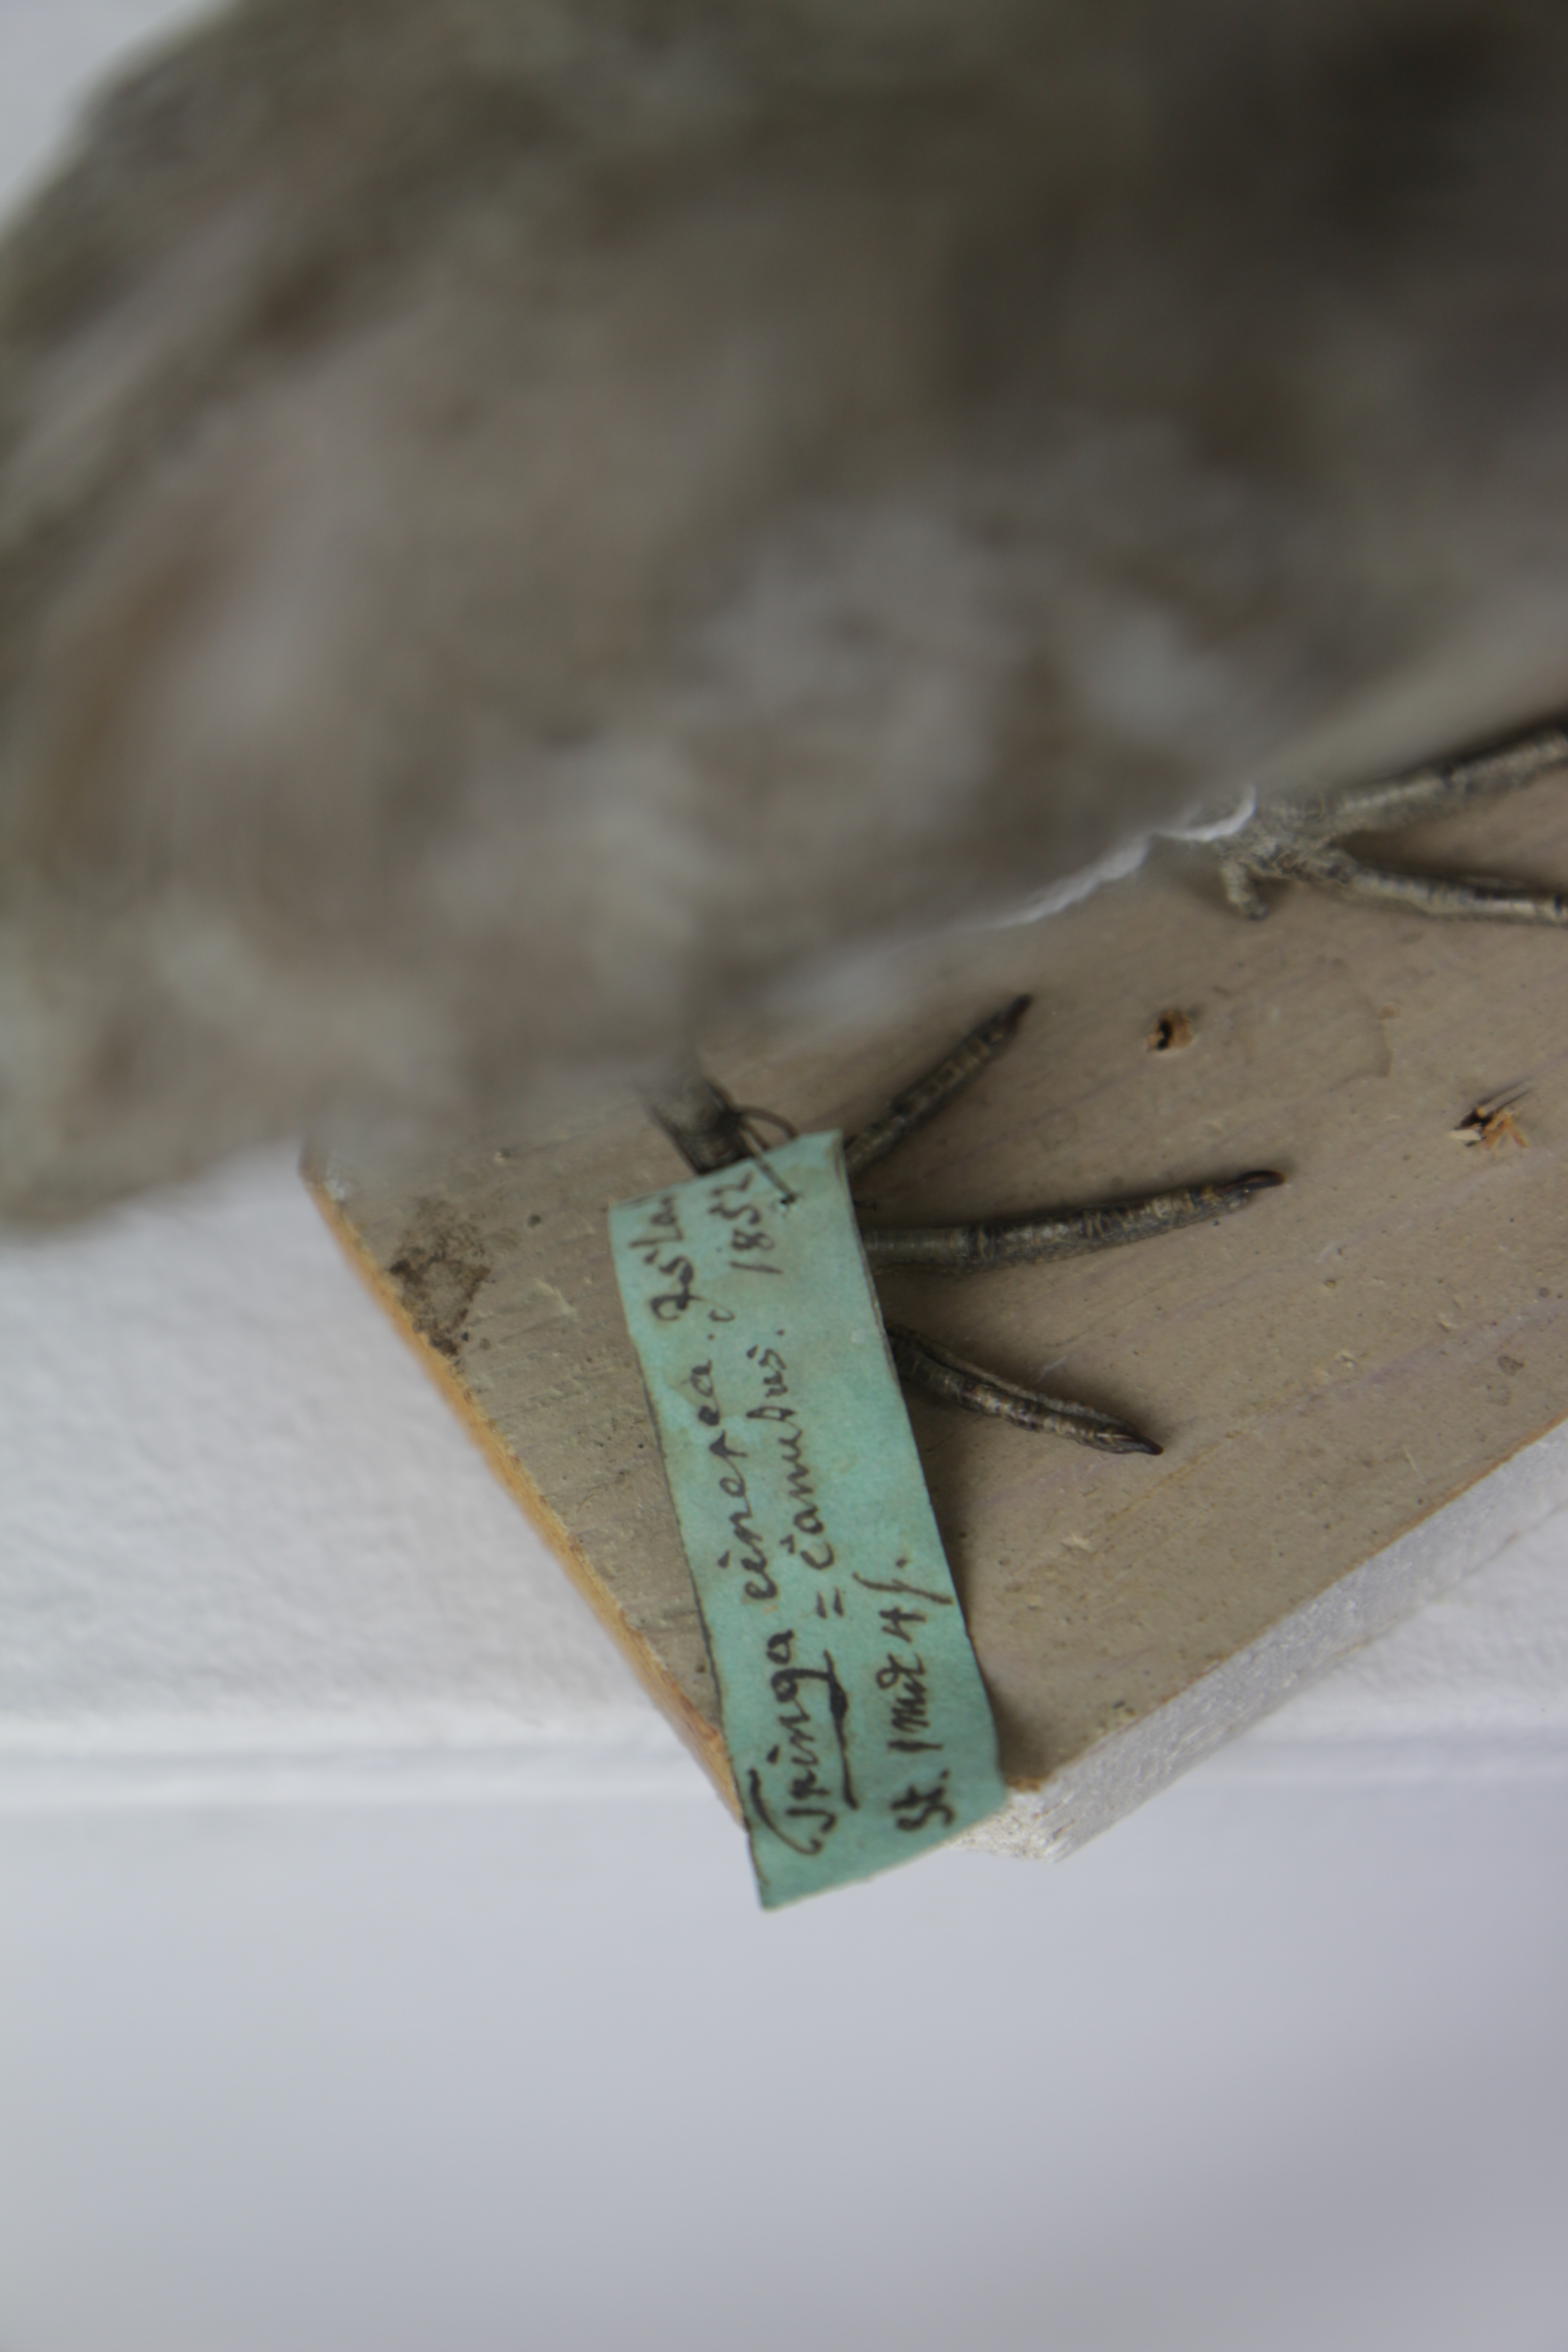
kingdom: Animalia
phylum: Chordata
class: Aves
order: Charadriiformes
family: Scolopacidae
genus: Calidris
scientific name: Calidris canutus
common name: Red knot
